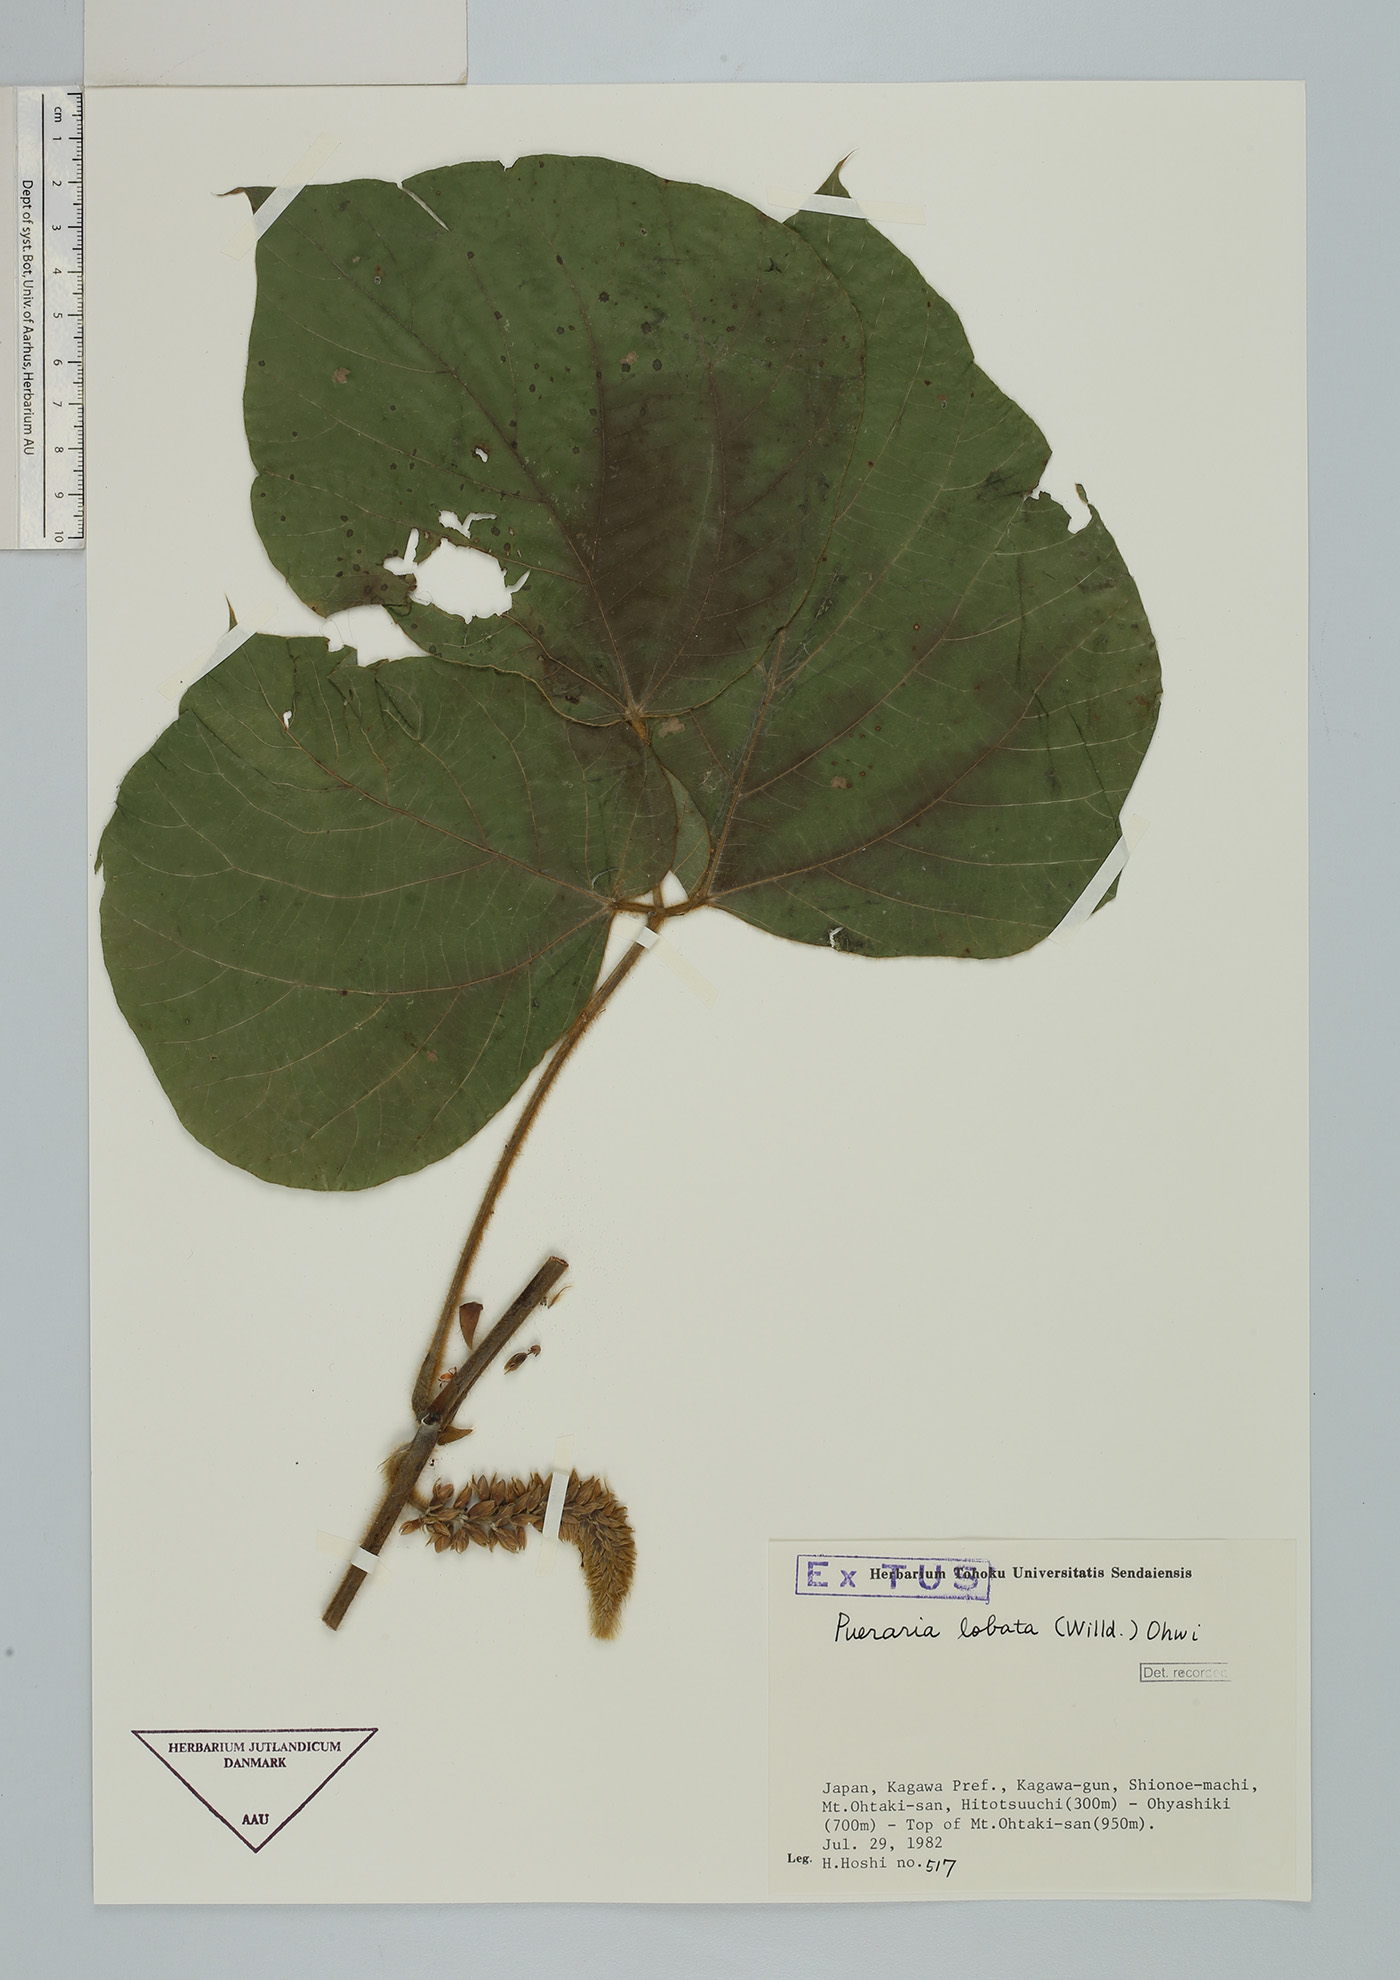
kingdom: Plantae
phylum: Tracheophyta
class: Magnoliopsida
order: Fabales
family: Fabaceae
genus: Pueraria
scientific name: Pueraria montana
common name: Kudzu
